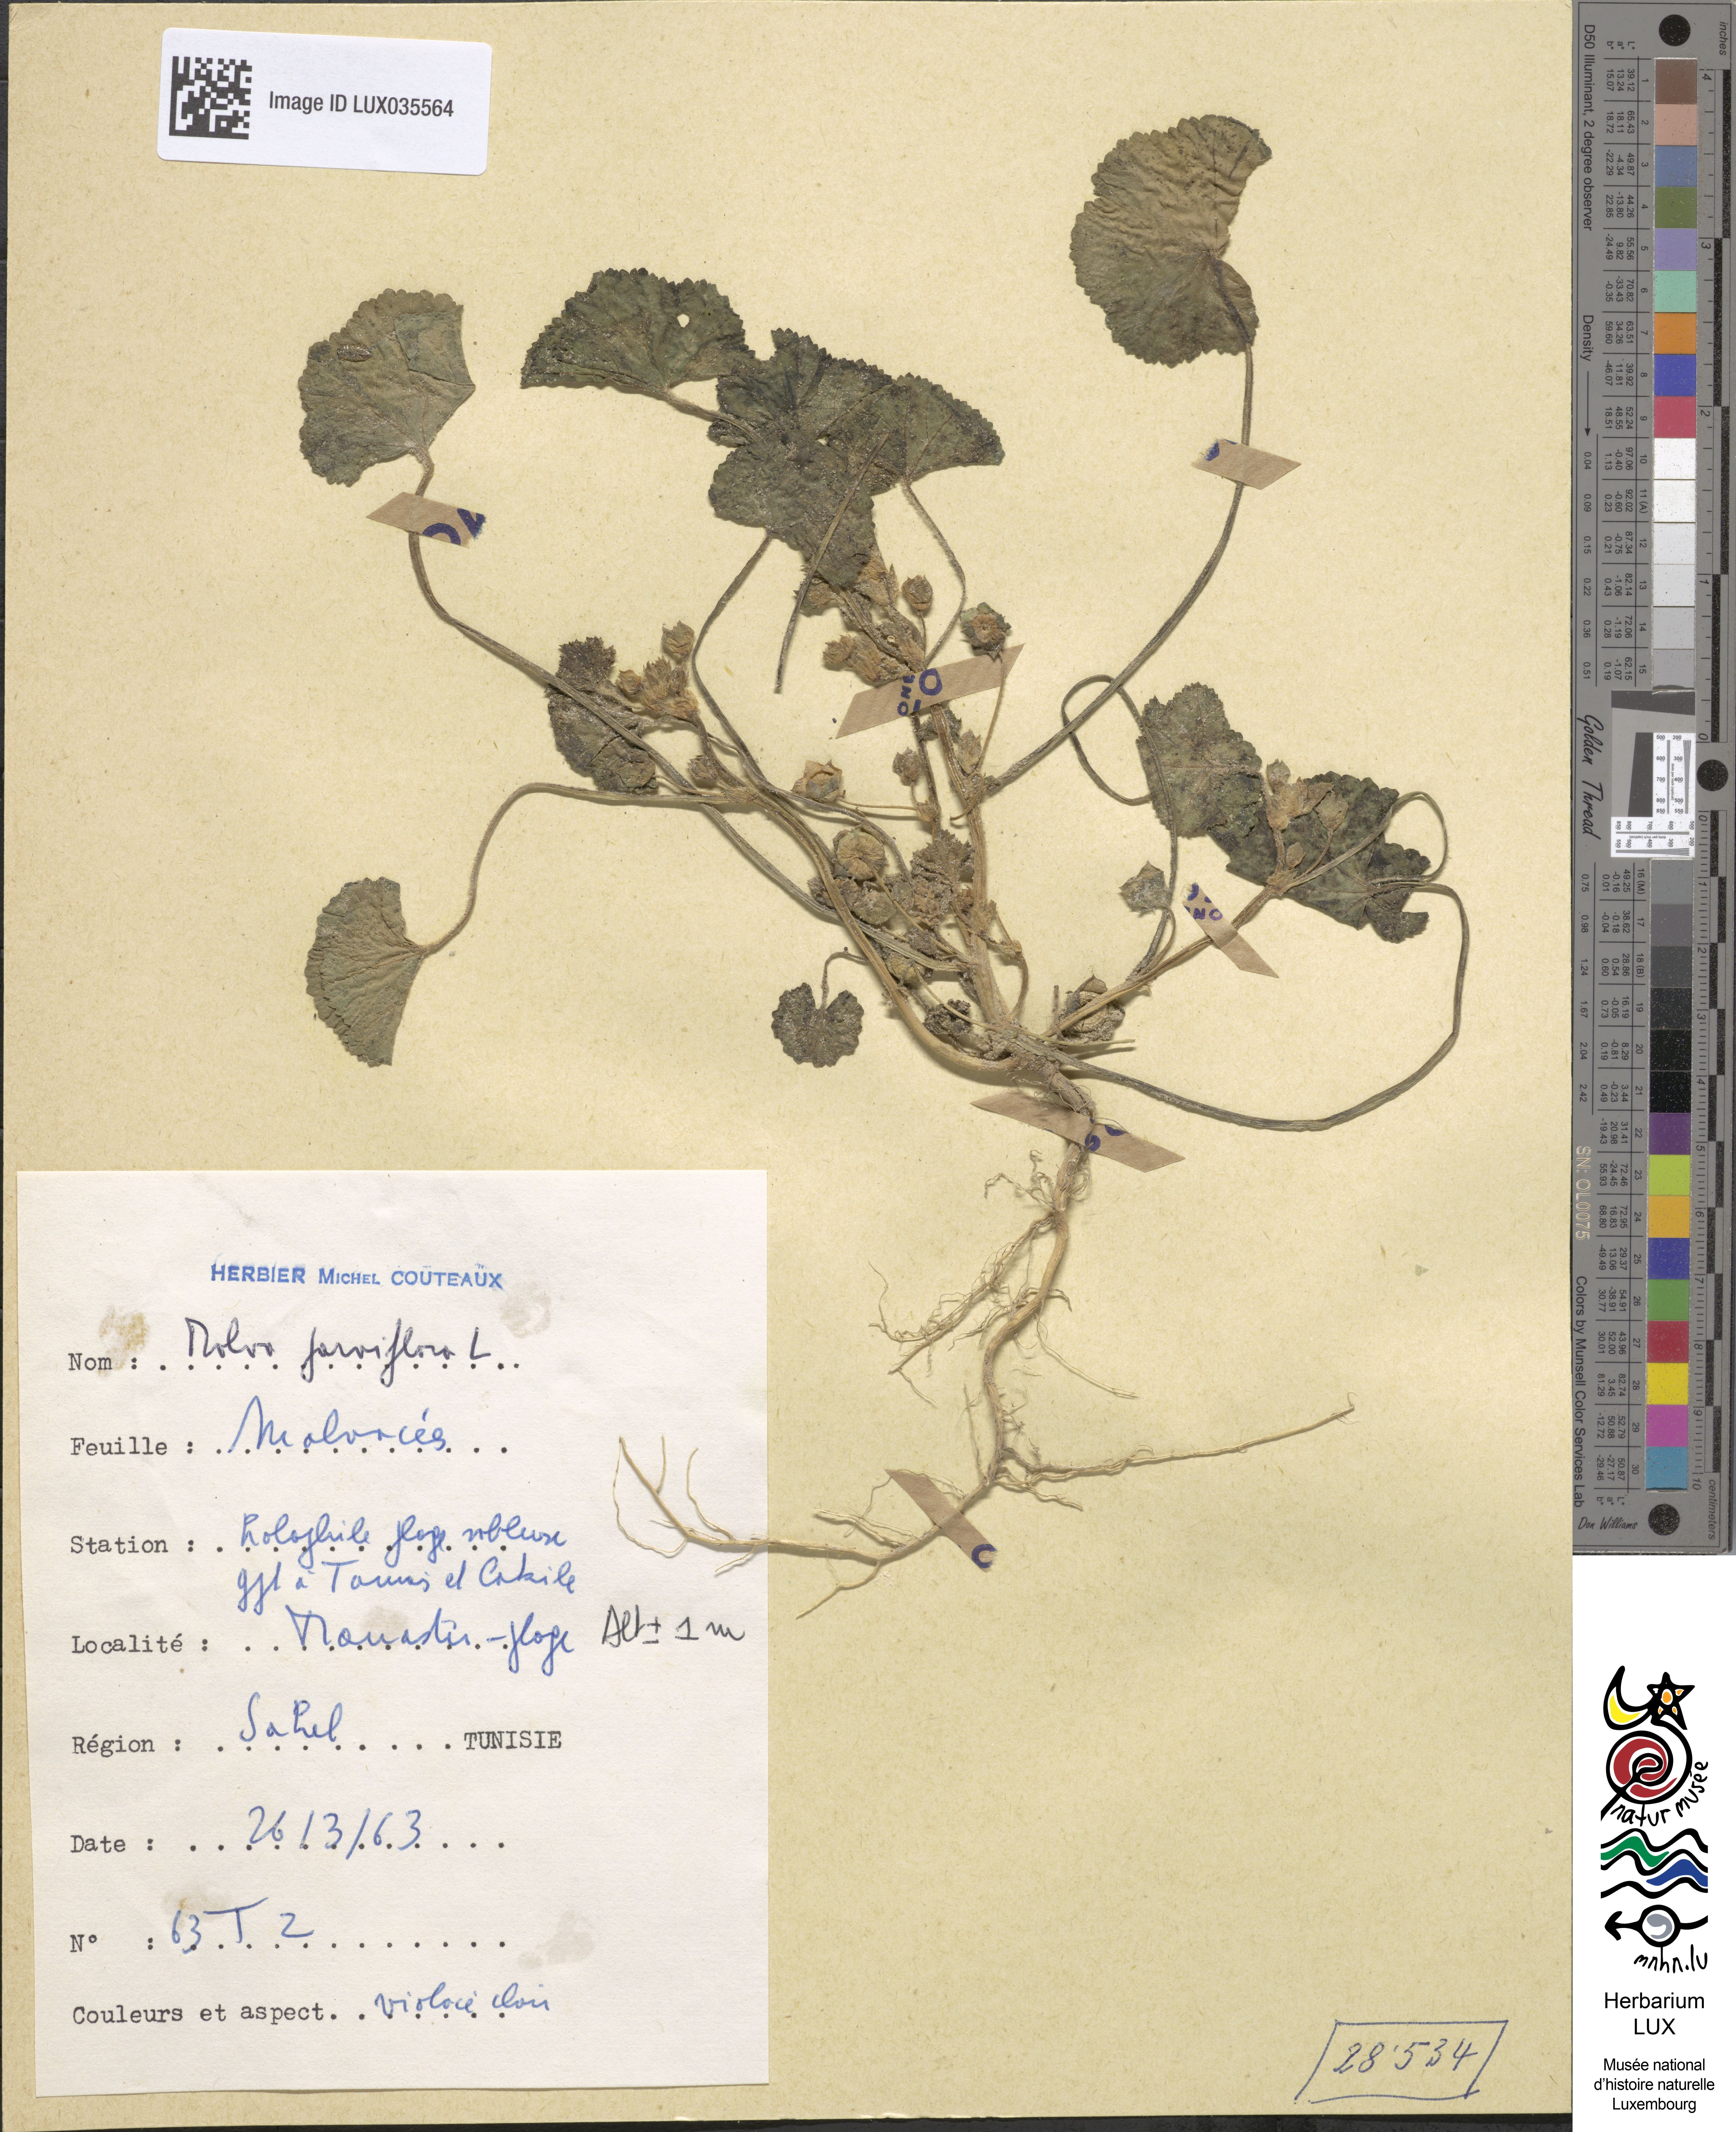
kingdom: Plantae
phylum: Tracheophyta
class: Magnoliopsida
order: Malvales
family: Malvaceae
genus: Malva
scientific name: Malva parviflora
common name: Least mallow
